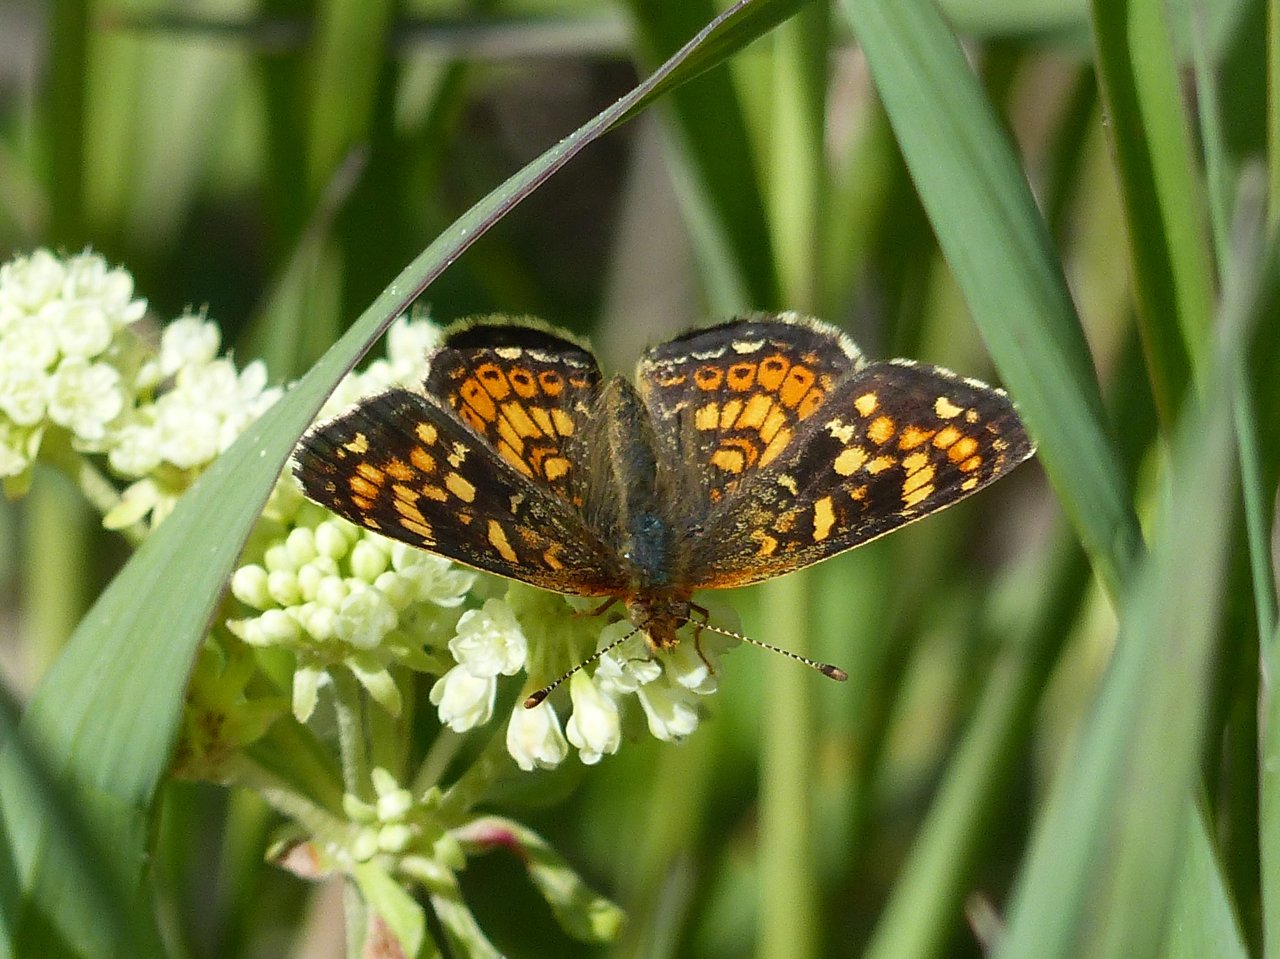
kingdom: Animalia
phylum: Arthropoda
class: Insecta
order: Lepidoptera
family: Nymphalidae
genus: Phyciodes
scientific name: Phyciodes tharos
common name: Field Crescent
